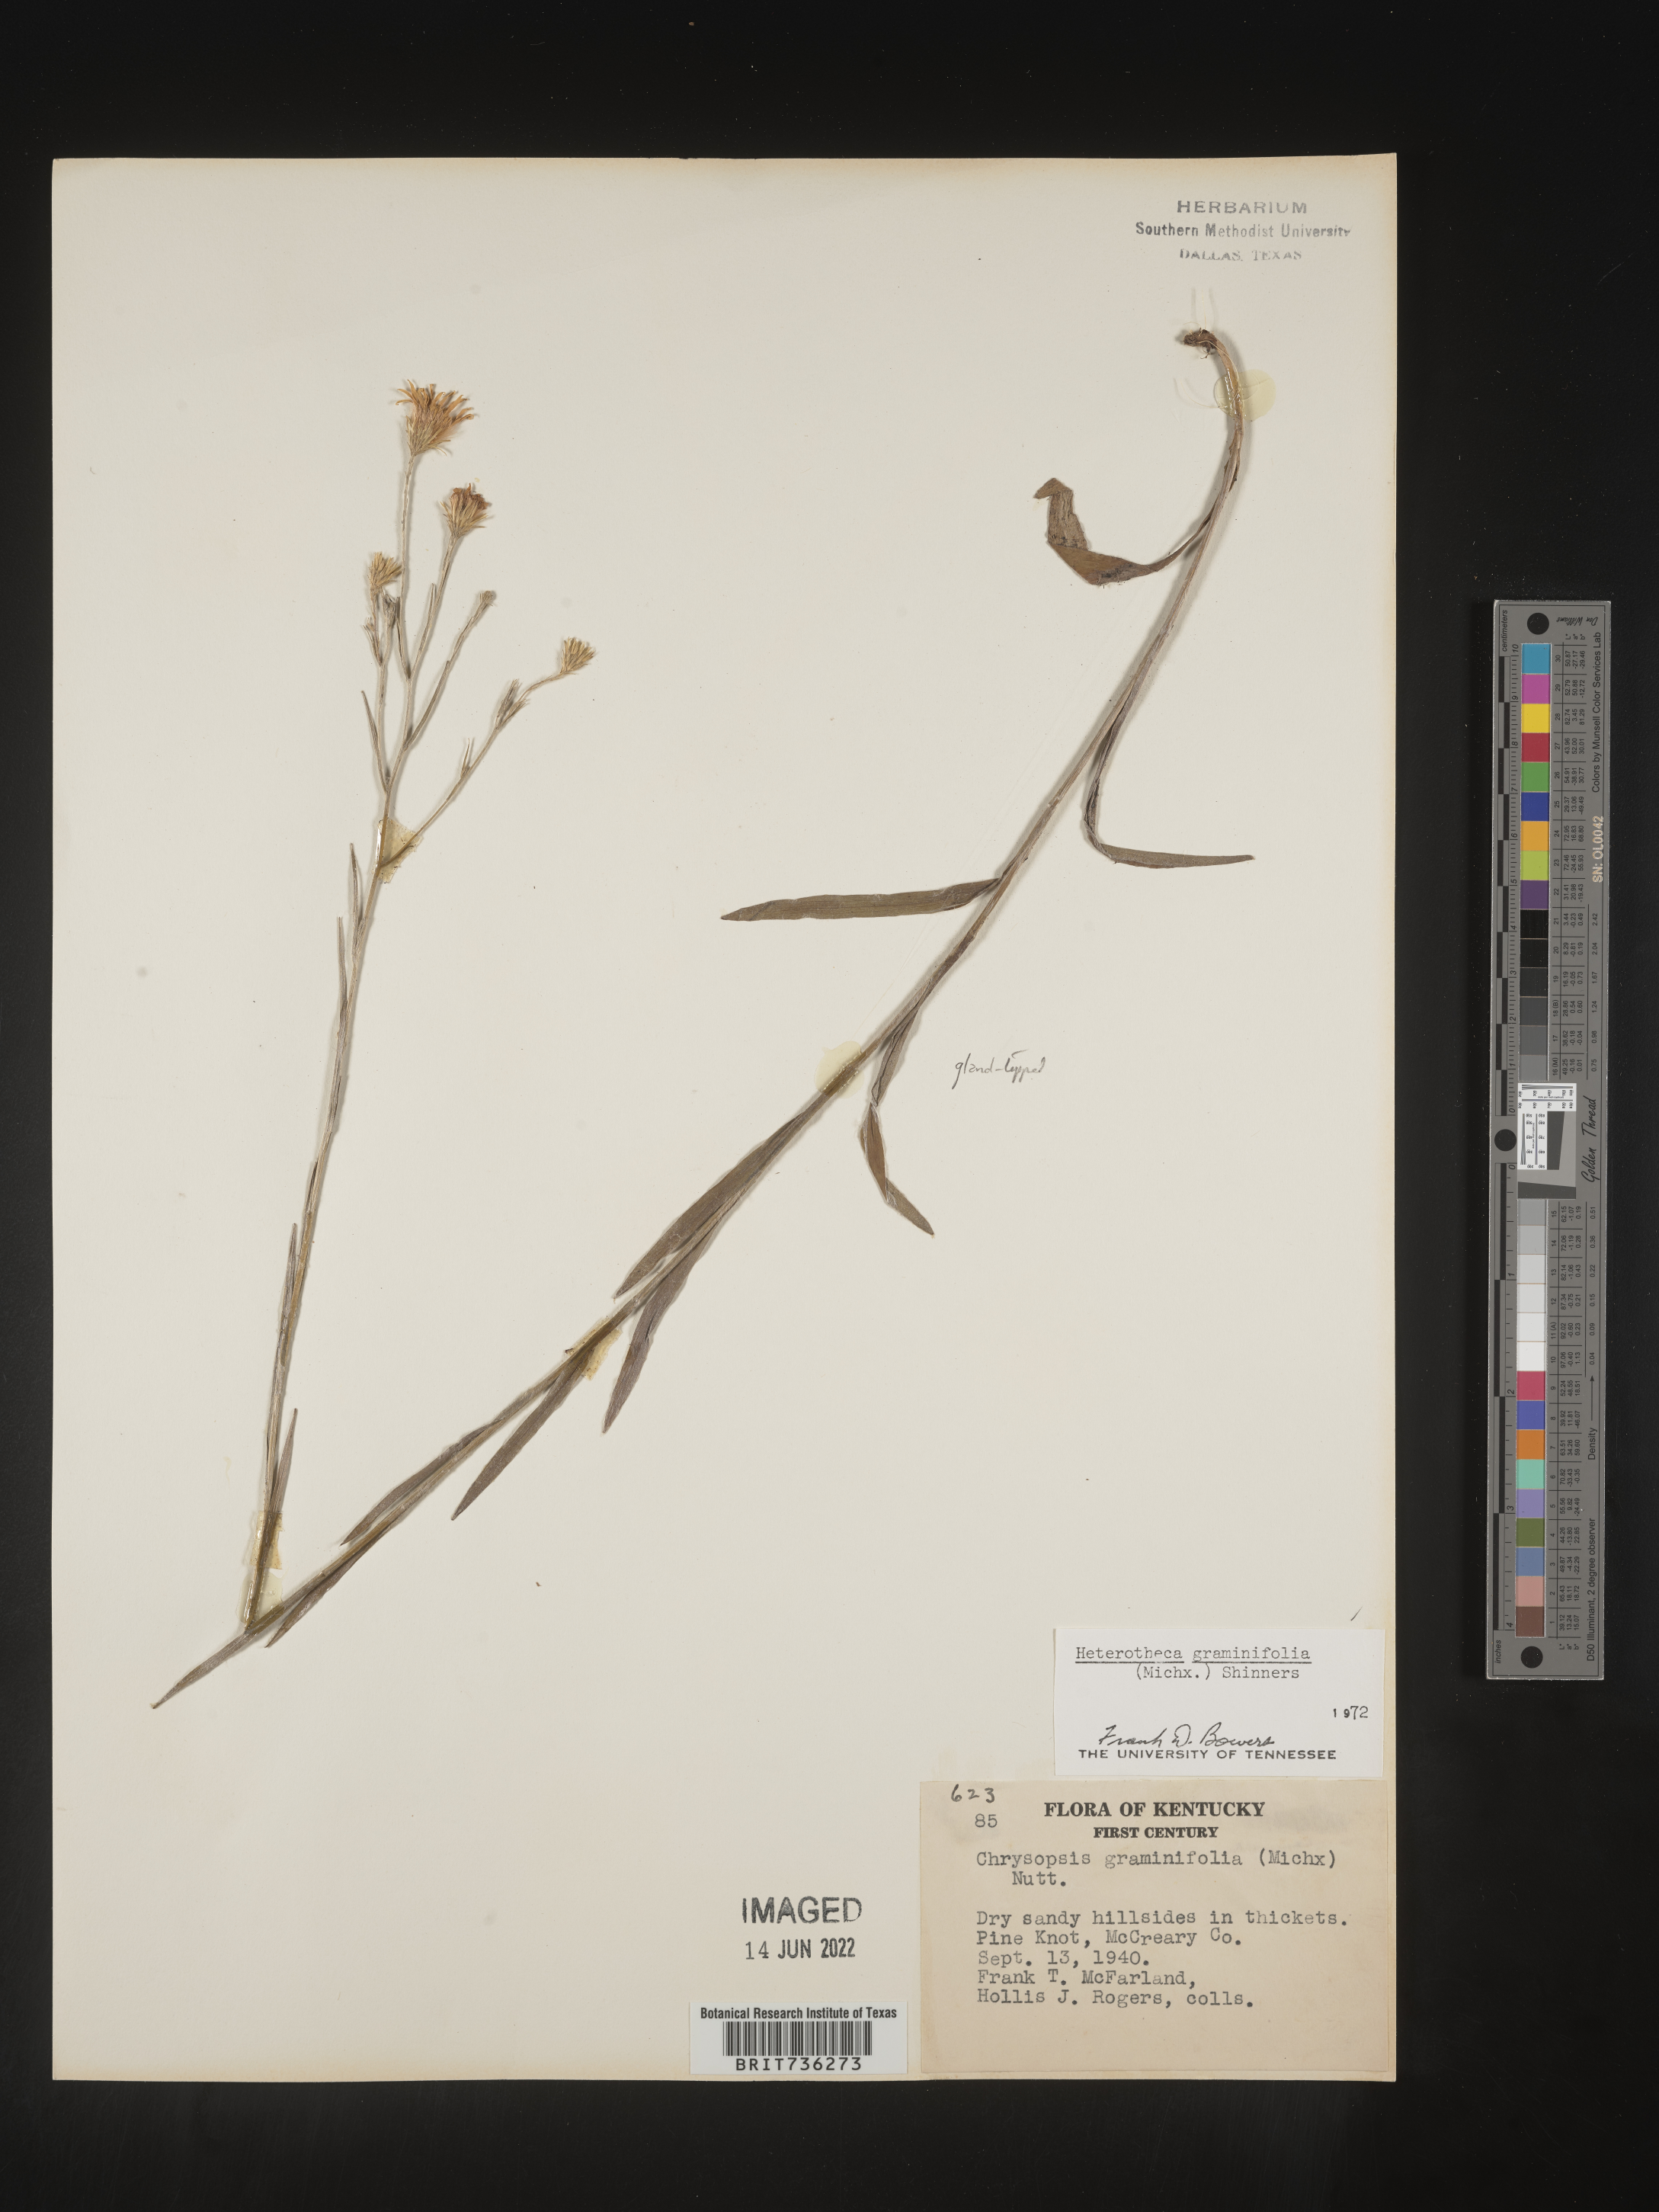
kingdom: Plantae
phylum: Tracheophyta
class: Magnoliopsida
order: Asterales
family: Asteraceae
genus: Pityopsis
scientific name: Pityopsis graminifolia
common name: Grass-leaf golden-aster
